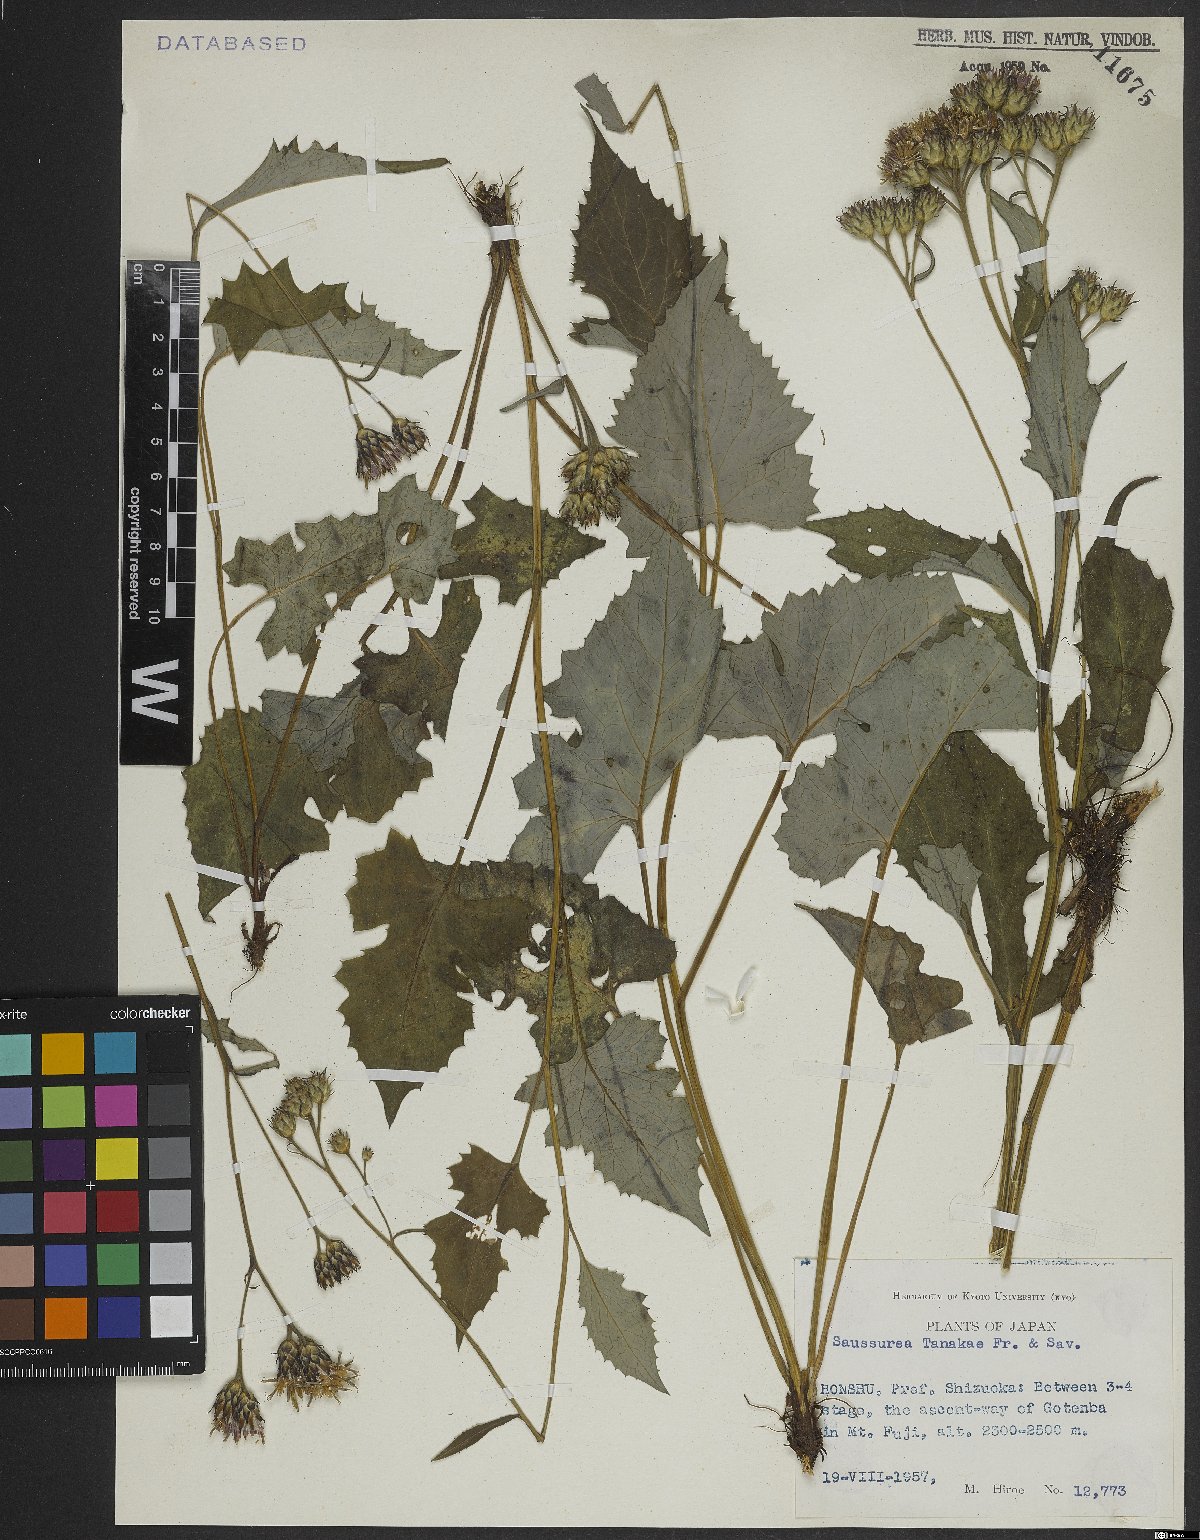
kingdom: Plantae
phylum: Tracheophyta
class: Magnoliopsida
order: Asterales
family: Asteraceae
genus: Saussurea
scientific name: Saussurea tanakae
